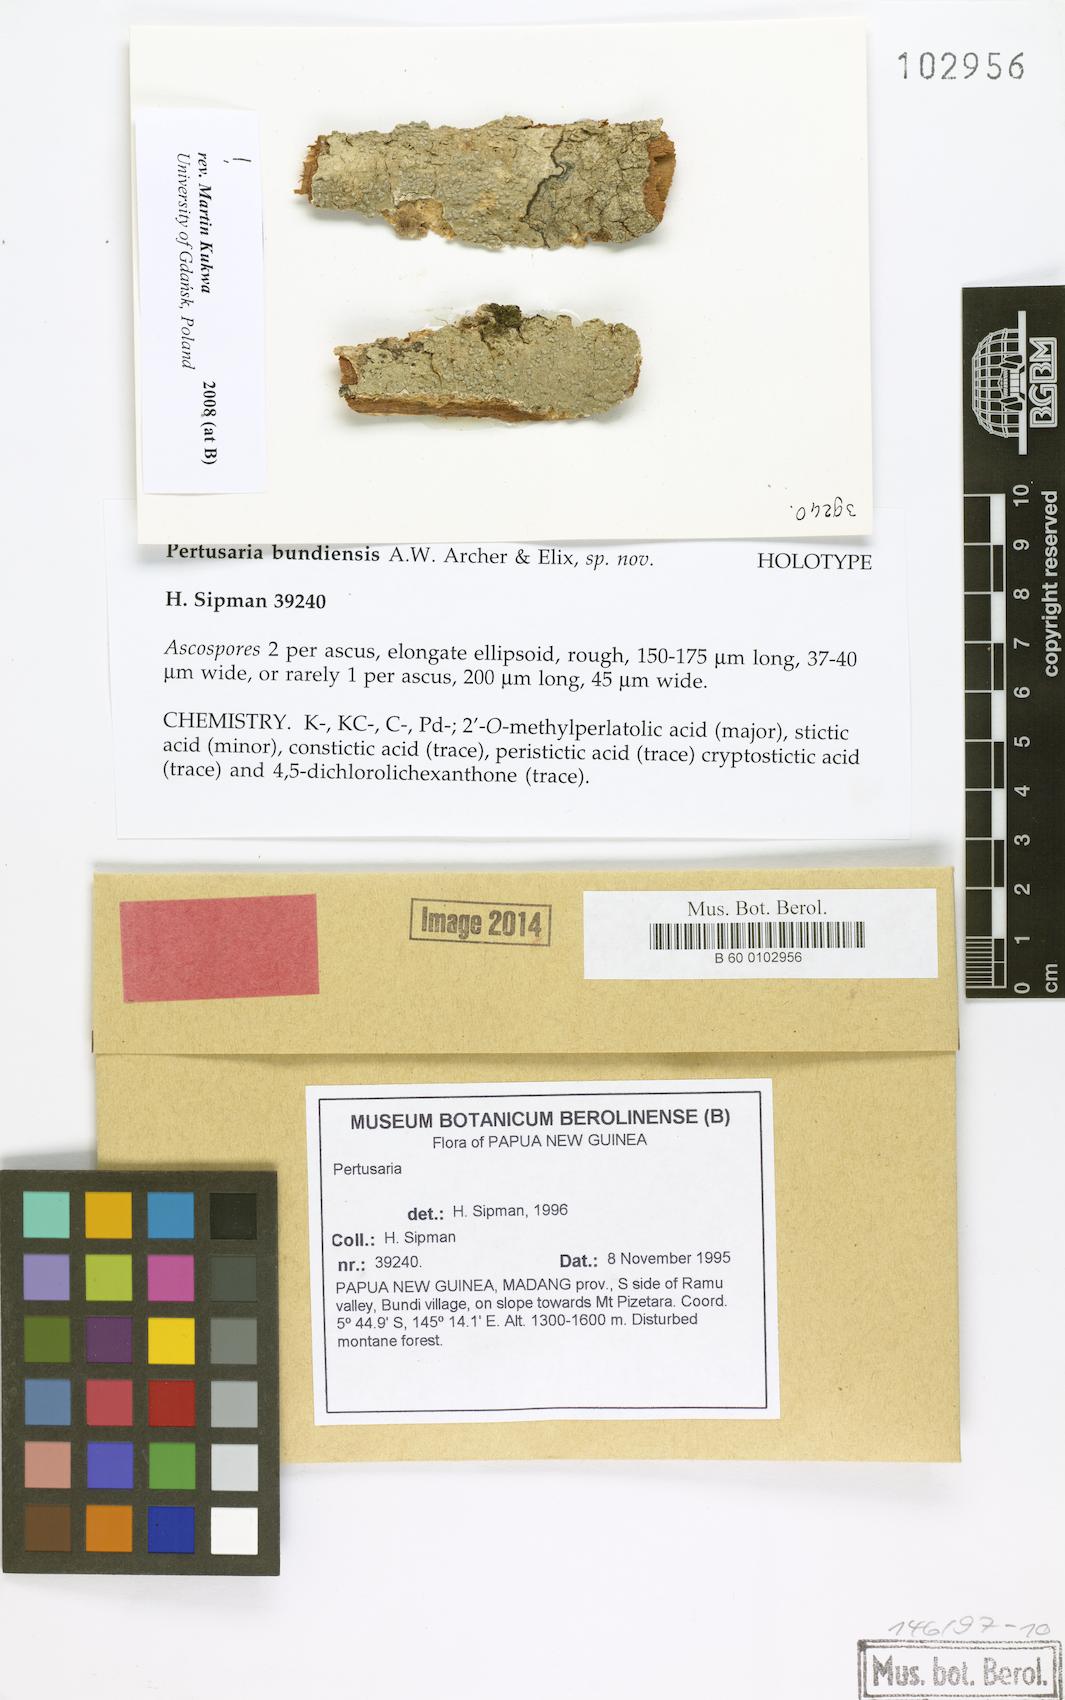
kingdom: Fungi
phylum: Ascomycota
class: Lecanoromycetes
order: Pertusariales
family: Pertusariaceae
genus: Pertusaria
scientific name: Pertusaria
